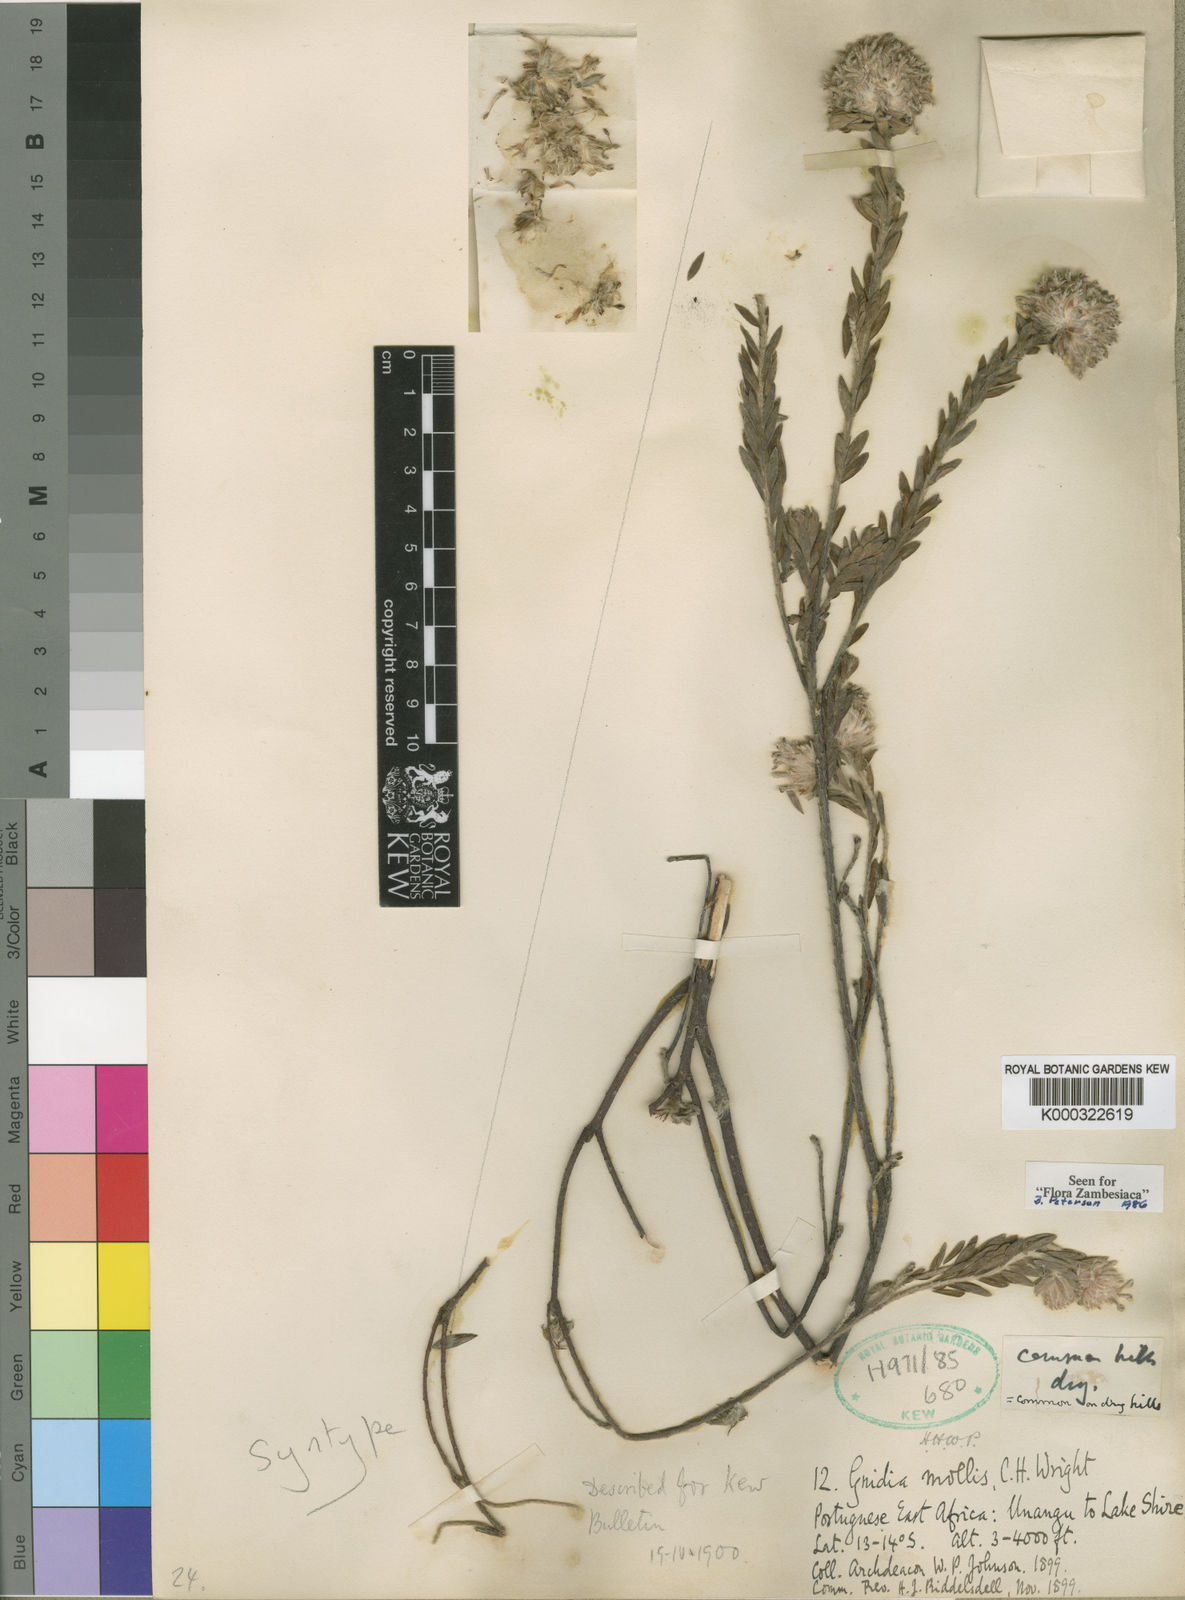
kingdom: Plantae
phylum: Tracheophyta
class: Magnoliopsida
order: Malvales
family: Thymelaeaceae
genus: Gnidia
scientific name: Gnidia mollis
